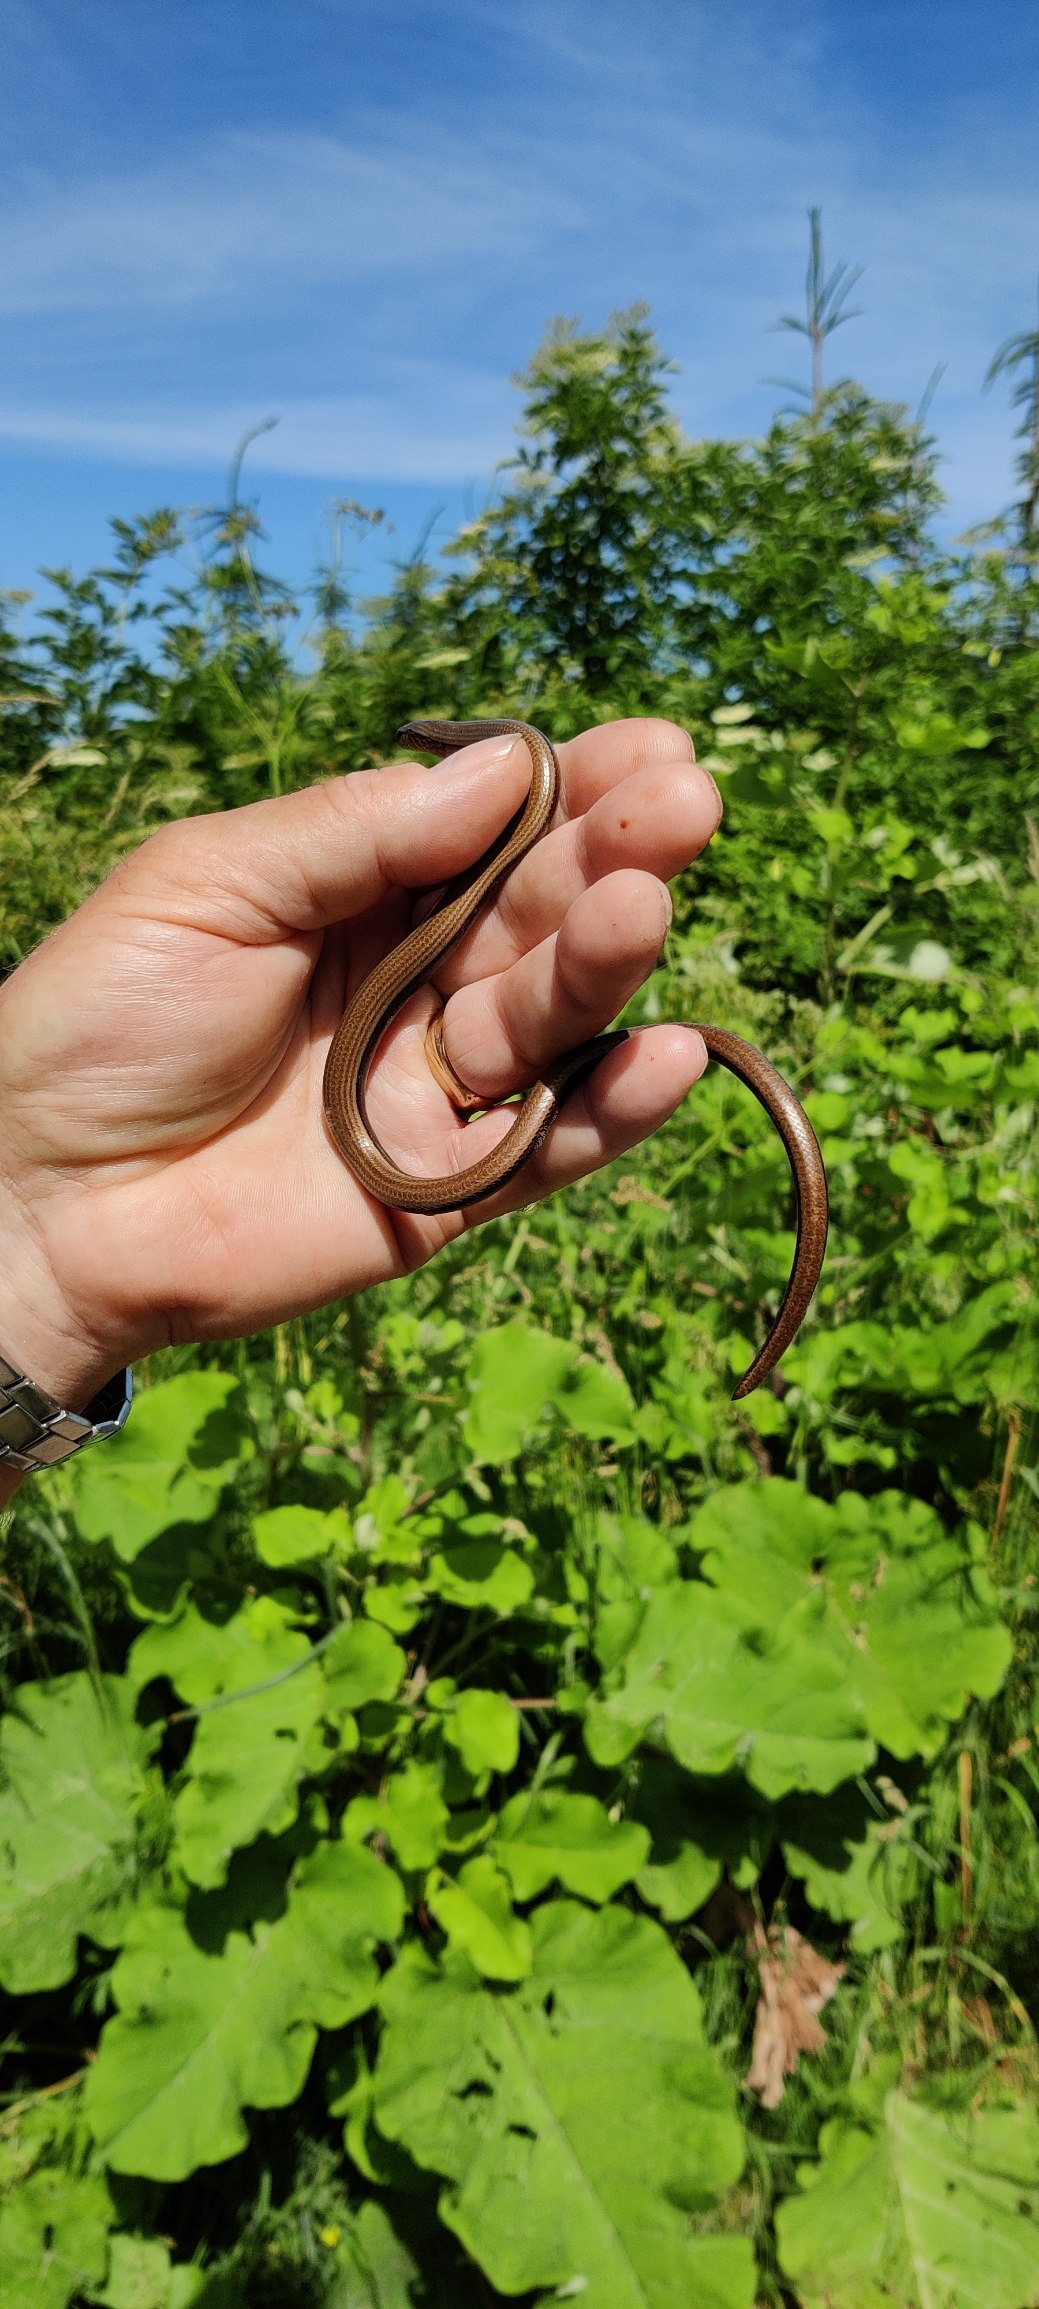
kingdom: Animalia
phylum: Chordata
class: Squamata
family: Anguidae
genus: Anguis
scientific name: Anguis fragilis
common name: Stålorm
